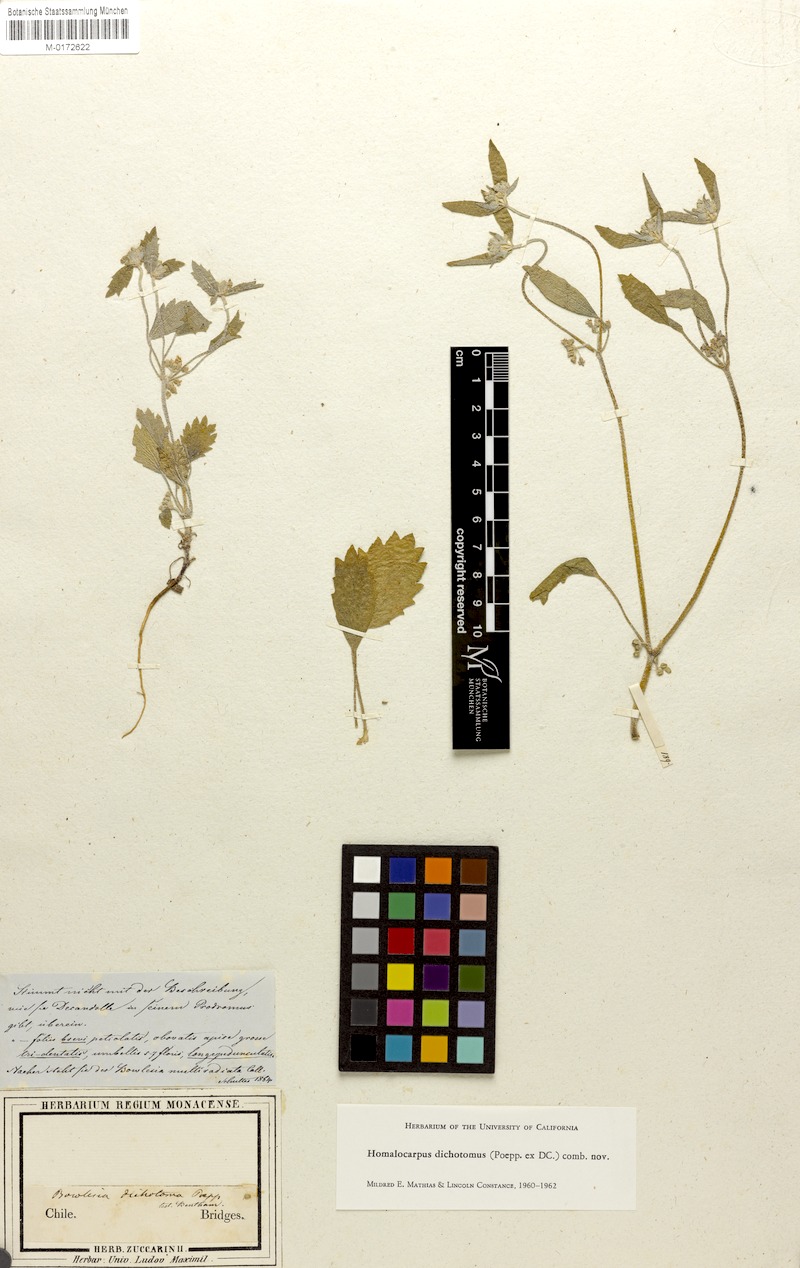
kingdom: Plantae
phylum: Tracheophyta
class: Magnoliopsida
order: Apiales
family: Apiaceae
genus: Homalocarpus
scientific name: Homalocarpus dichotomus
